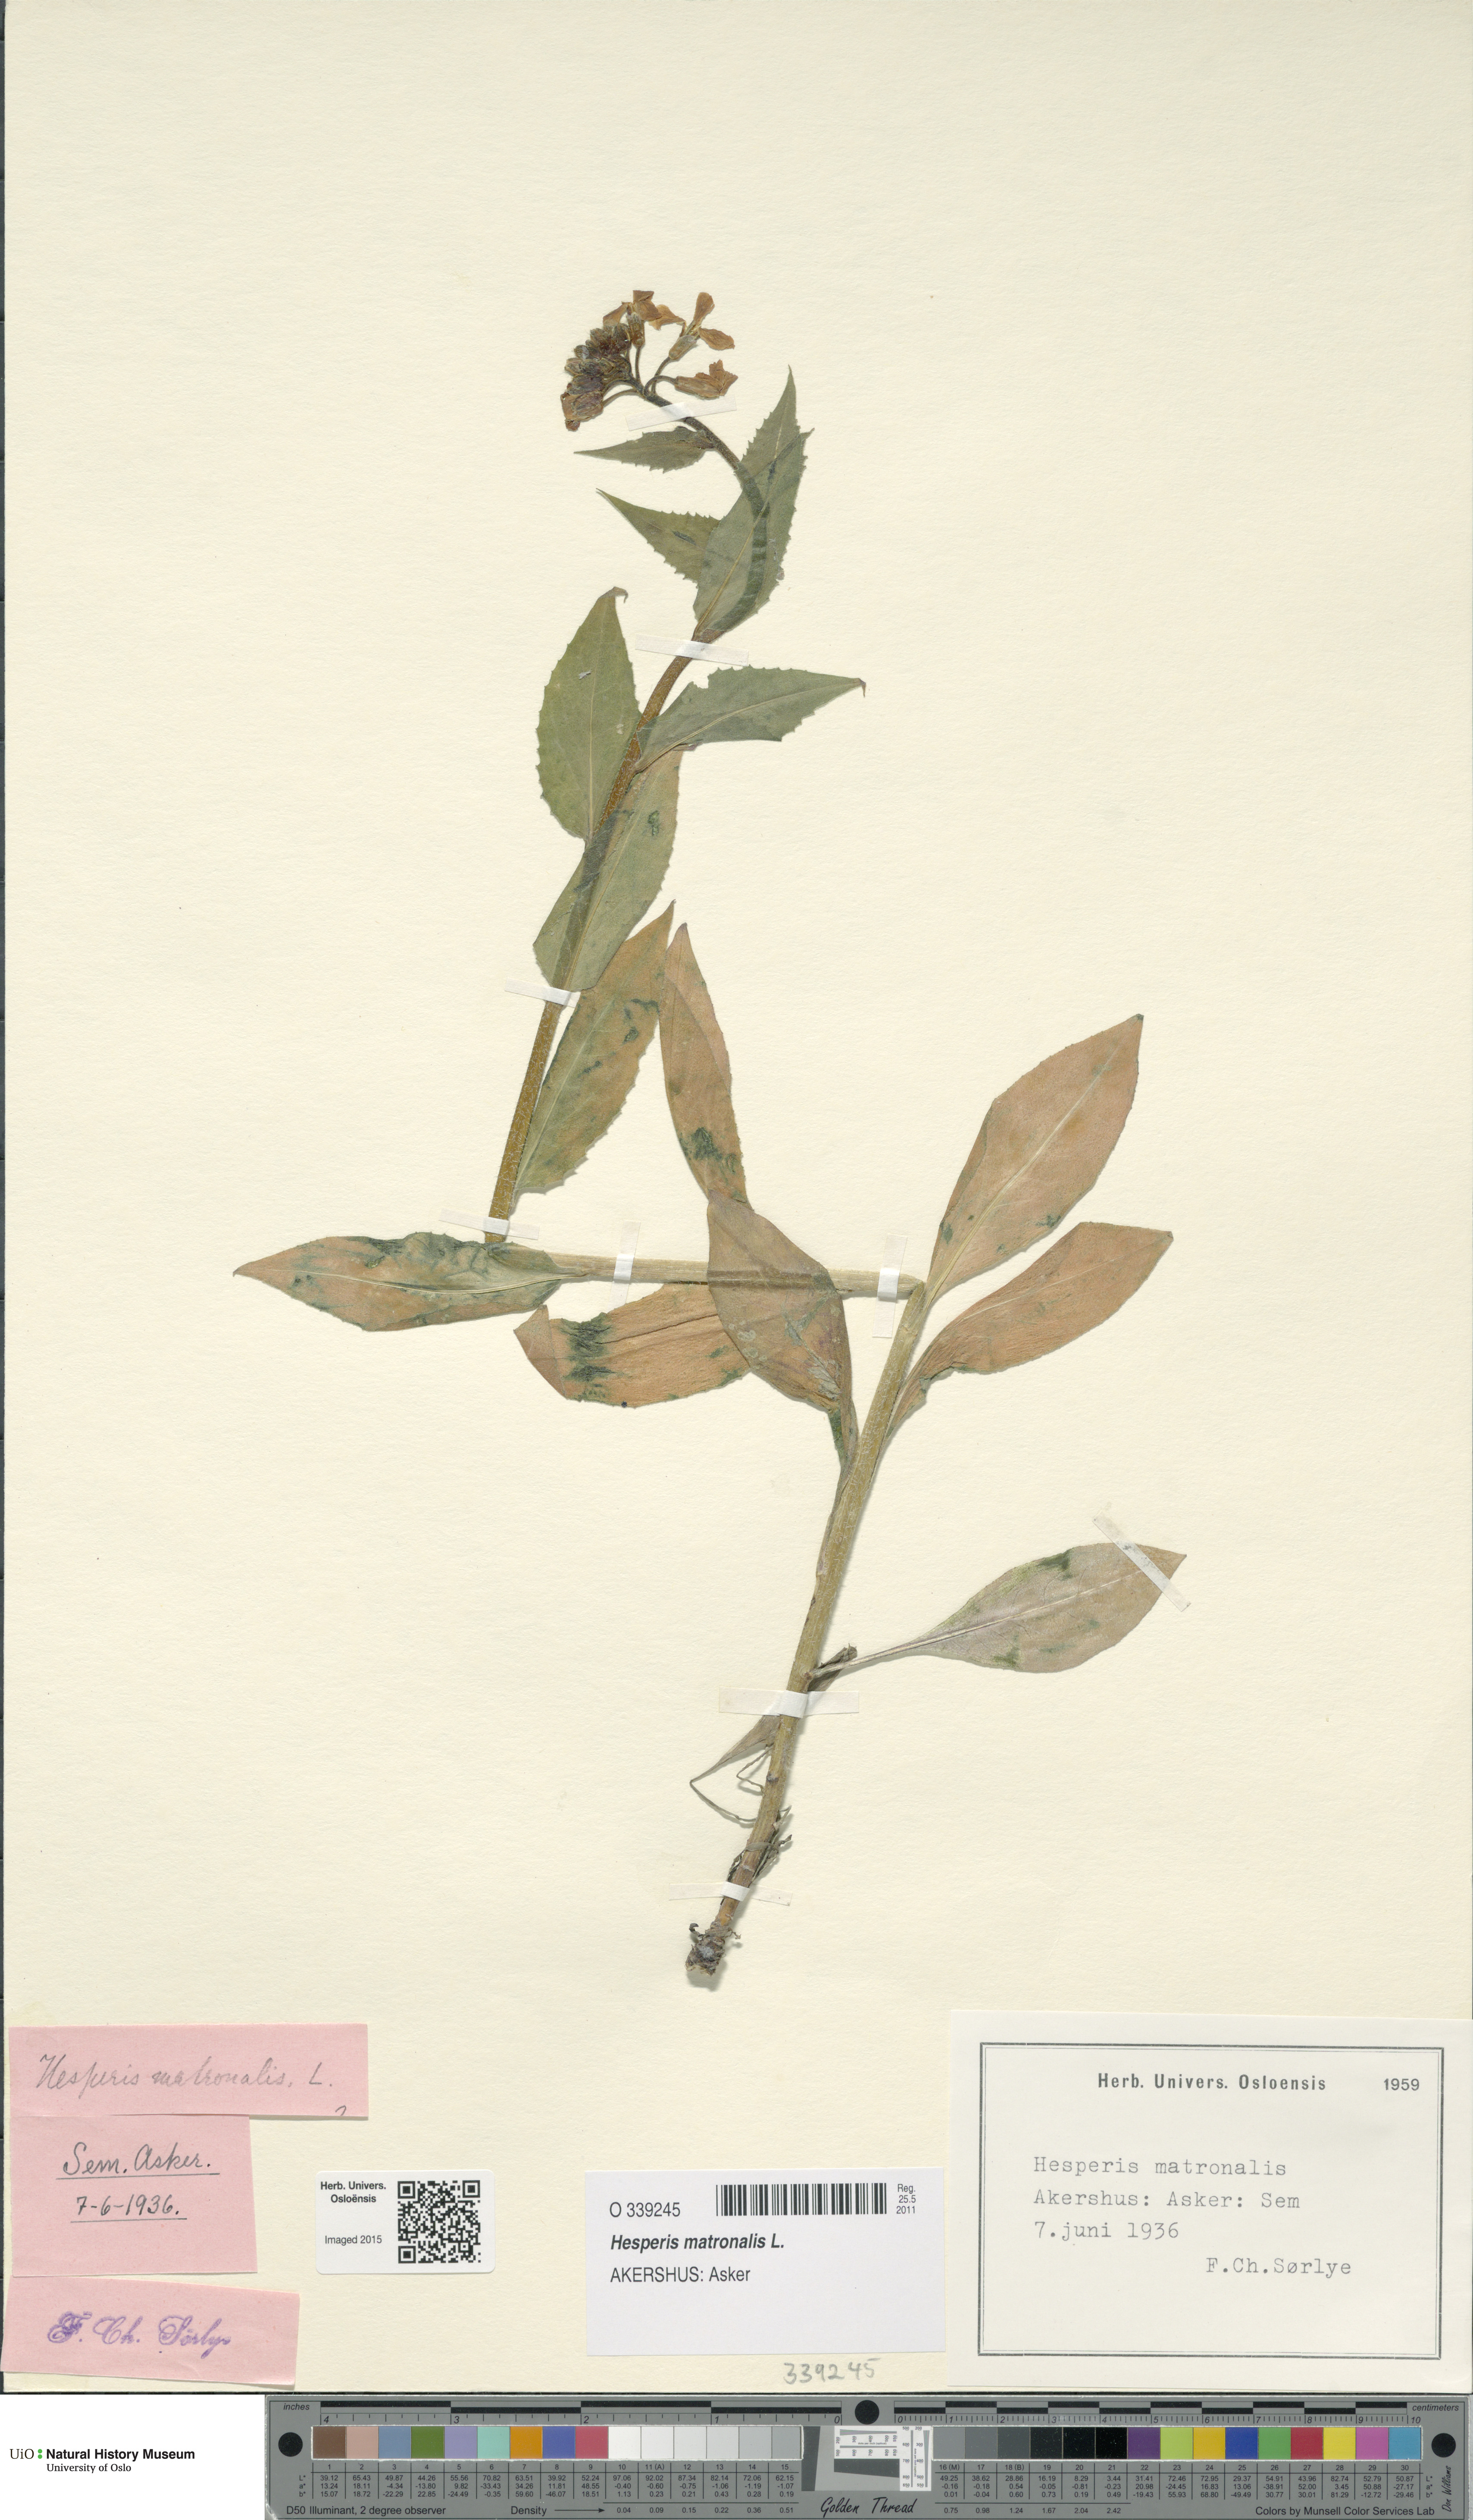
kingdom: Plantae
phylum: Tracheophyta
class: Magnoliopsida
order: Brassicales
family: Brassicaceae
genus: Hesperis
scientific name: Hesperis matronalis
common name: Dame's-violet
